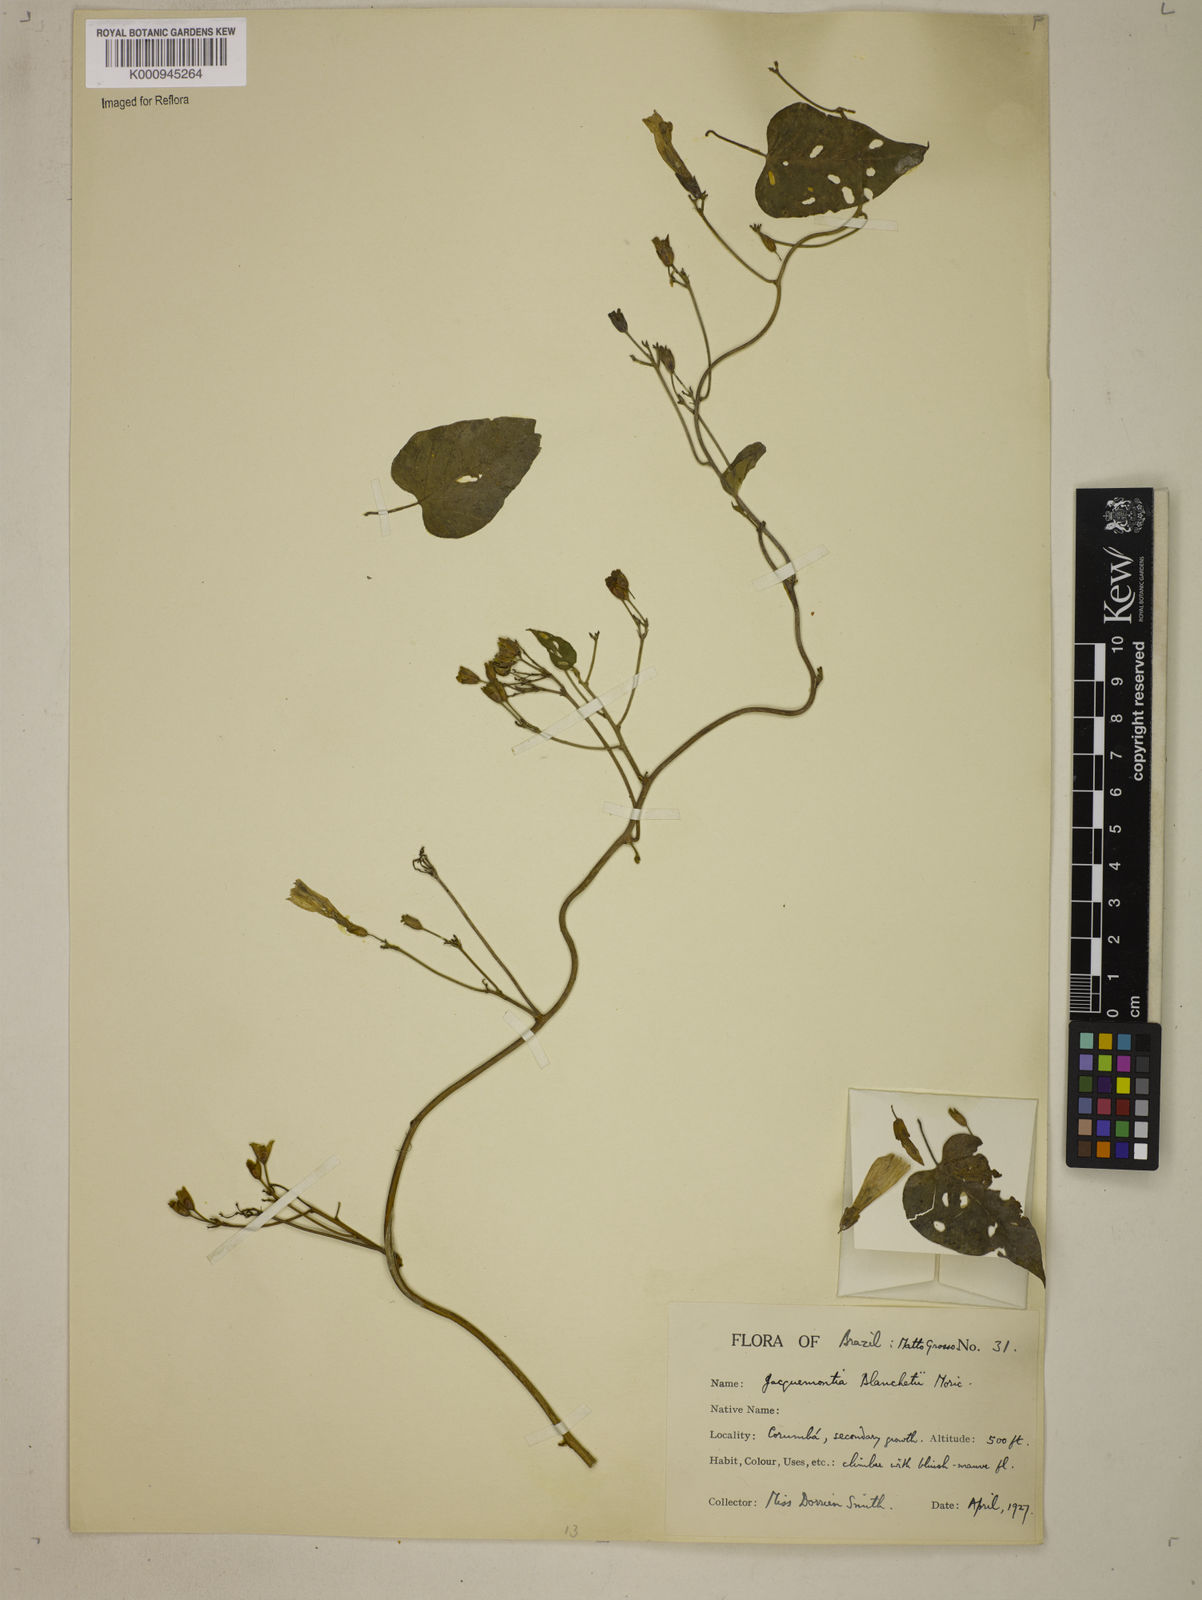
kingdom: Plantae
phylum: Tracheophyta
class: Magnoliopsida
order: Solanales
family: Convolvulaceae
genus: Jacquemontia
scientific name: Jacquemontia blanchetii
